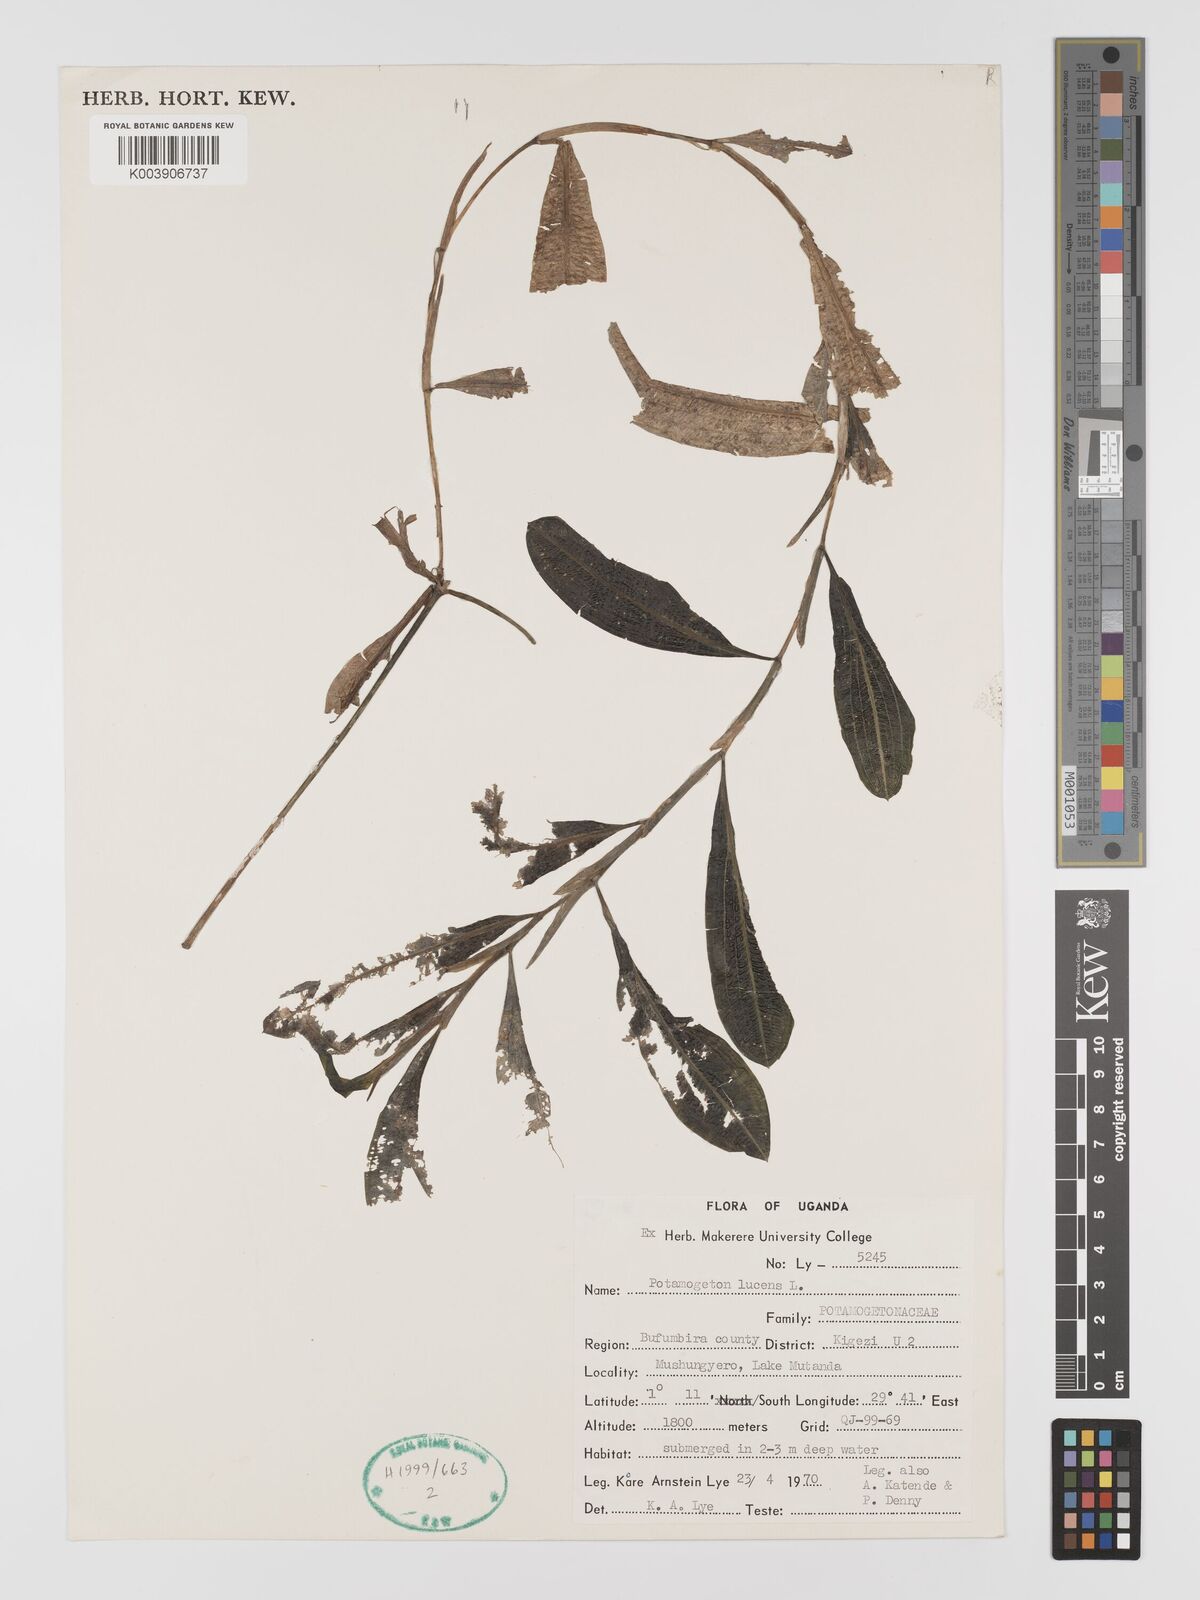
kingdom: Plantae
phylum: Tracheophyta
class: Liliopsida
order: Alismatales
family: Potamogetonaceae
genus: Potamogeton
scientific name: Potamogeton lucens
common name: Shining pondweed
